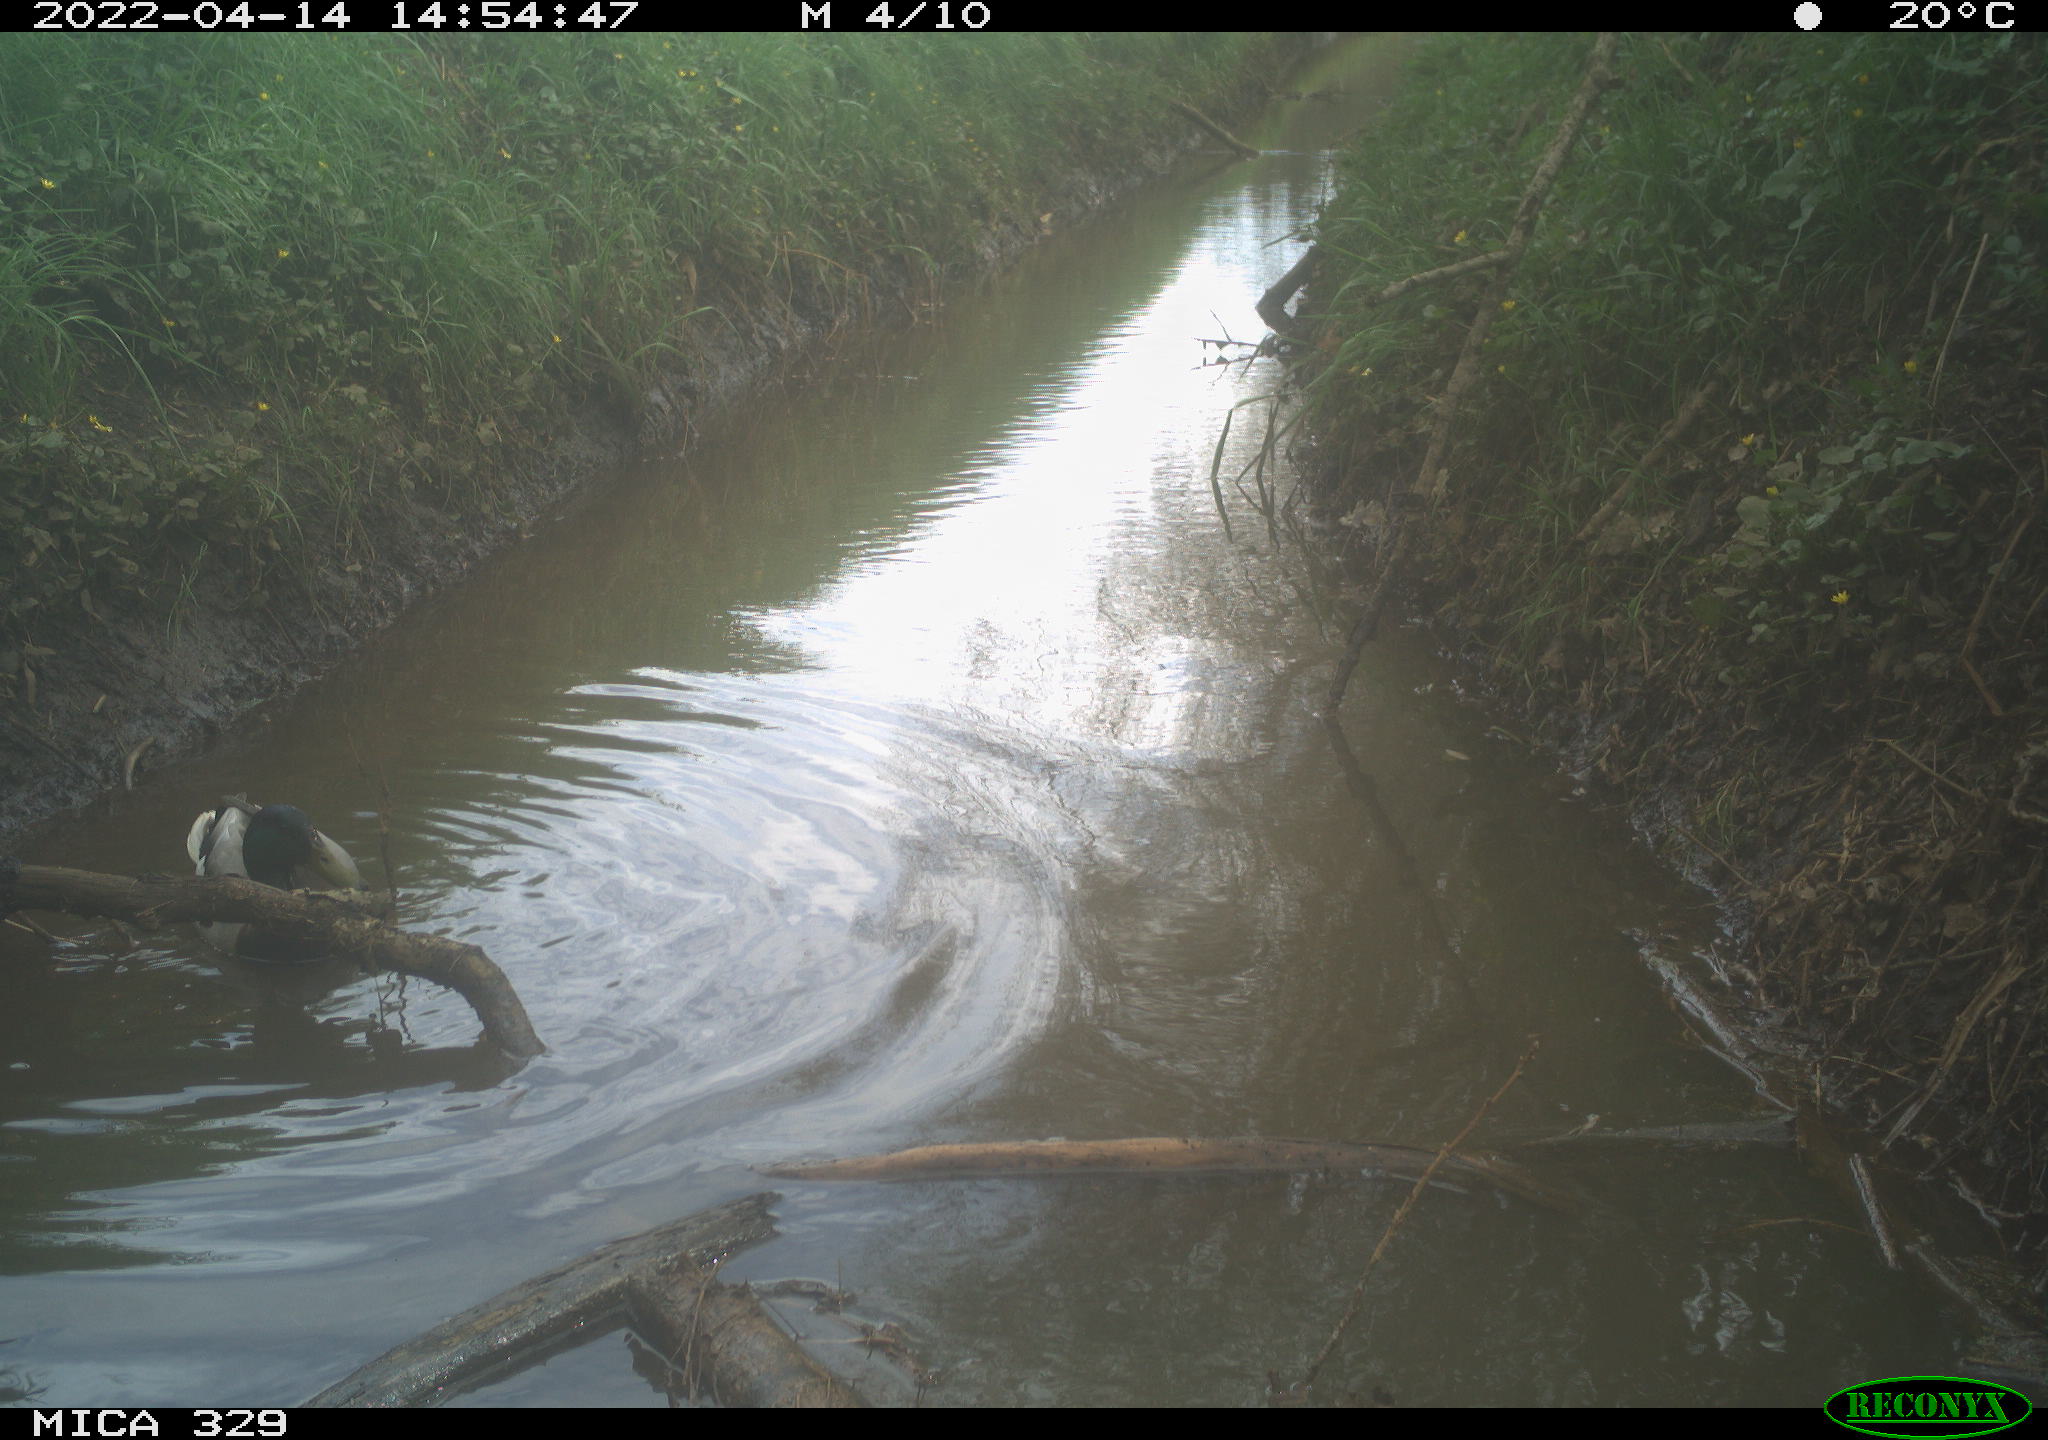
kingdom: Animalia
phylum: Chordata
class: Aves
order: Anseriformes
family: Anatidae
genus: Anas
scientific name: Anas platyrhynchos
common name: Mallard
